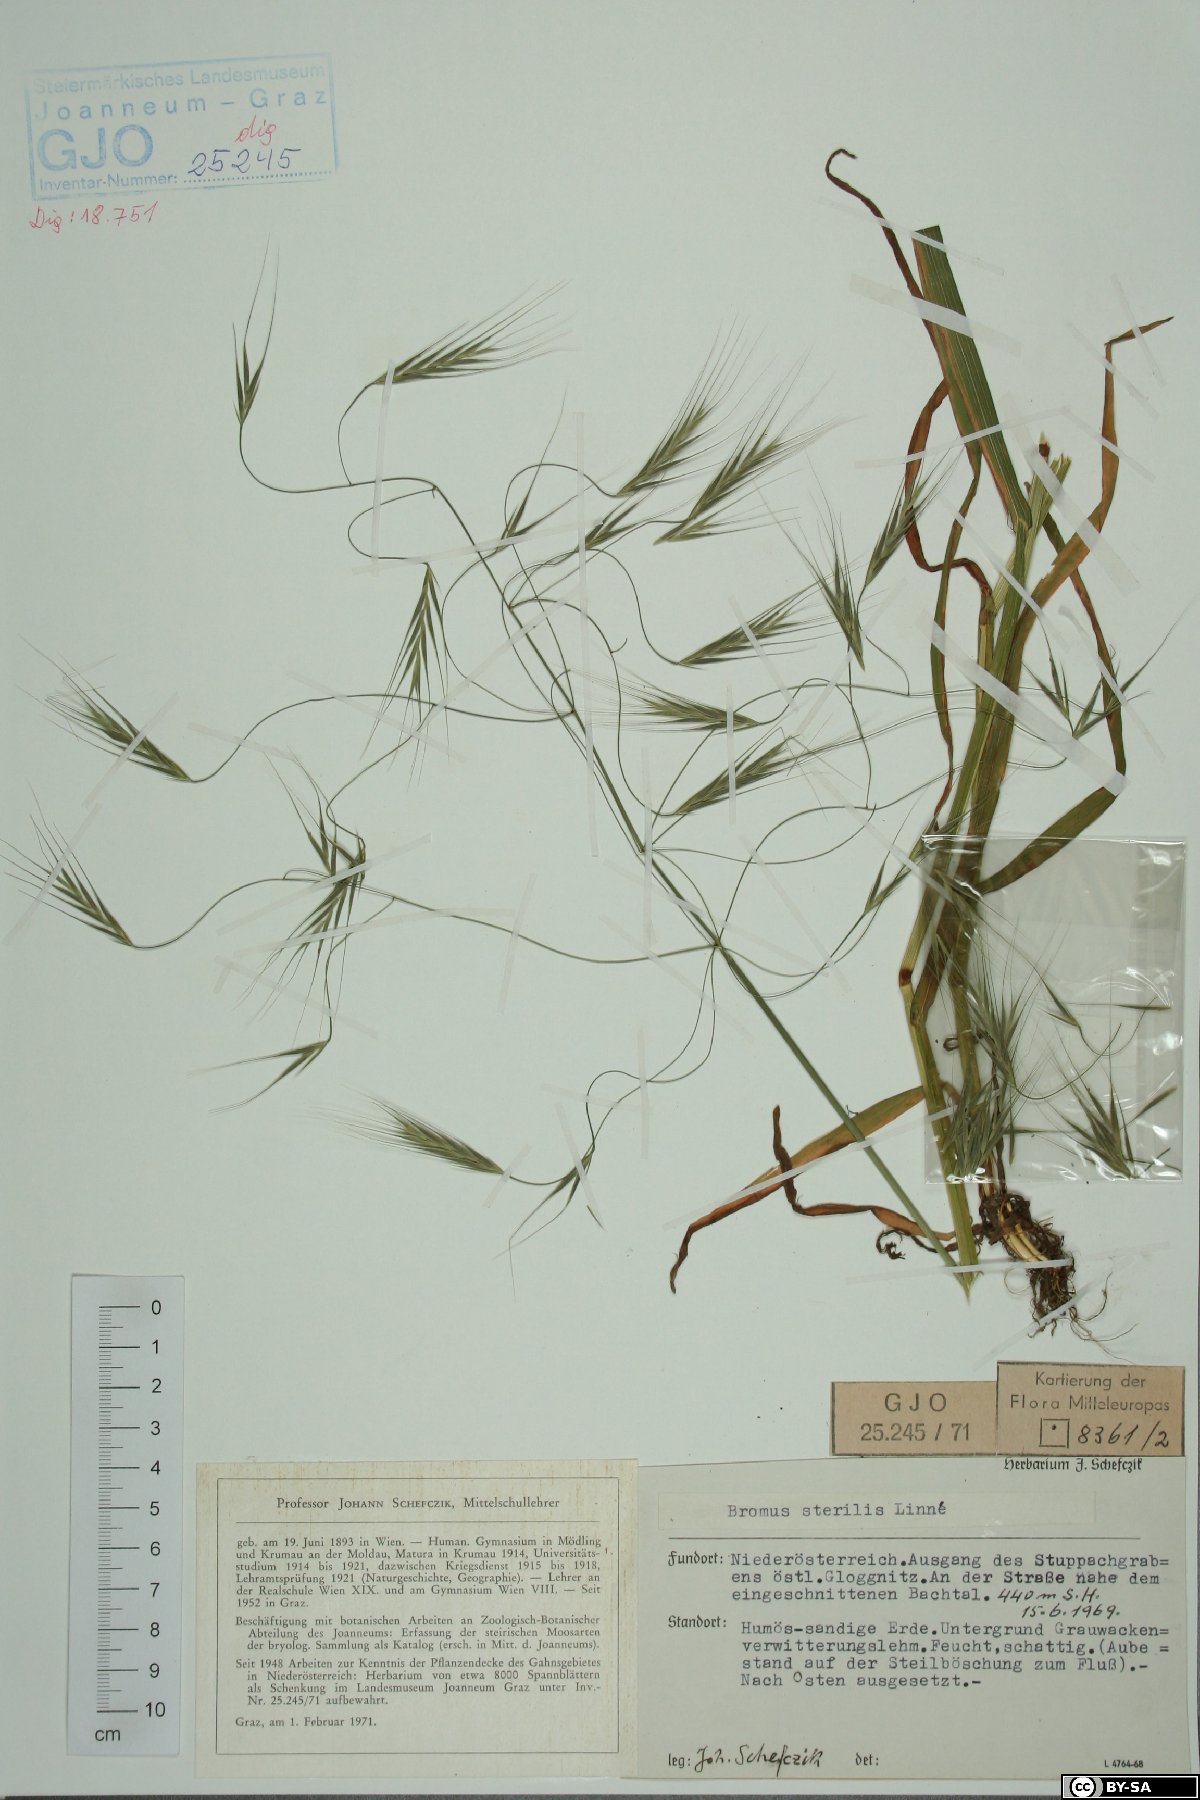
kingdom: Plantae
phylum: Tracheophyta
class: Liliopsida
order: Poales
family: Poaceae
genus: Bromus
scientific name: Bromus sterilis
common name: Poverty brome
